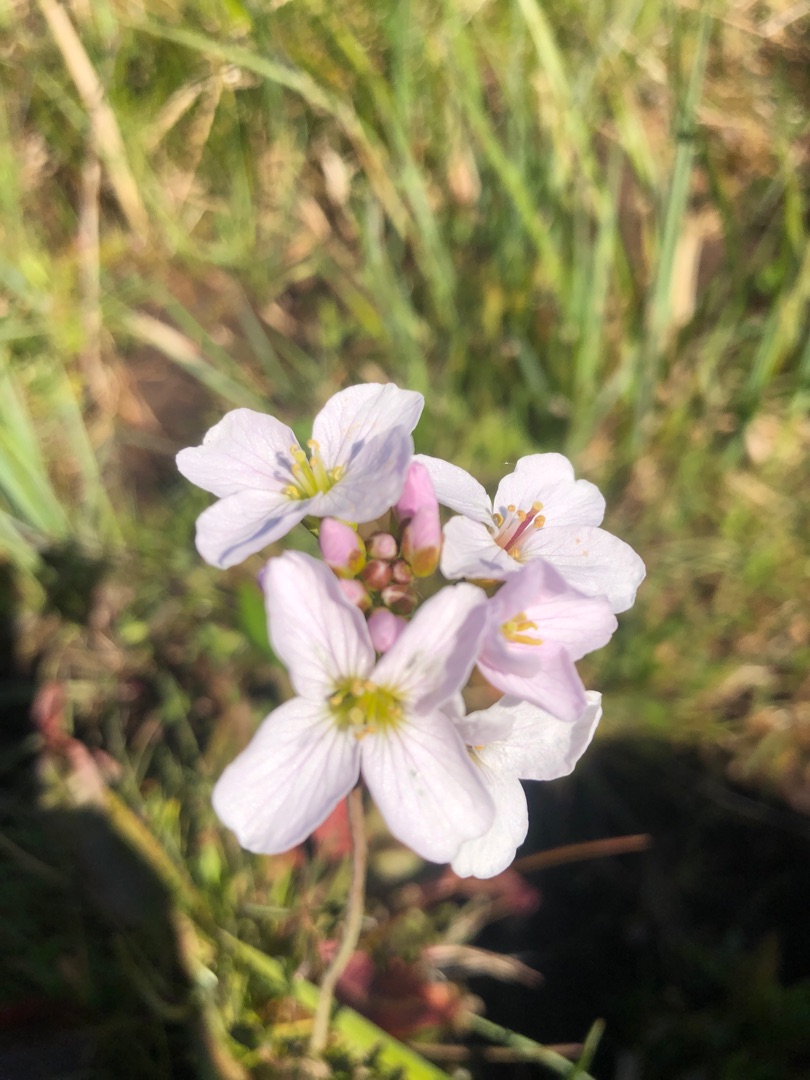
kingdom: Plantae
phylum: Tracheophyta
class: Magnoliopsida
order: Brassicales
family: Brassicaceae
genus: Cardamine
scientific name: Cardamine pratensis
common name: Engkarse
